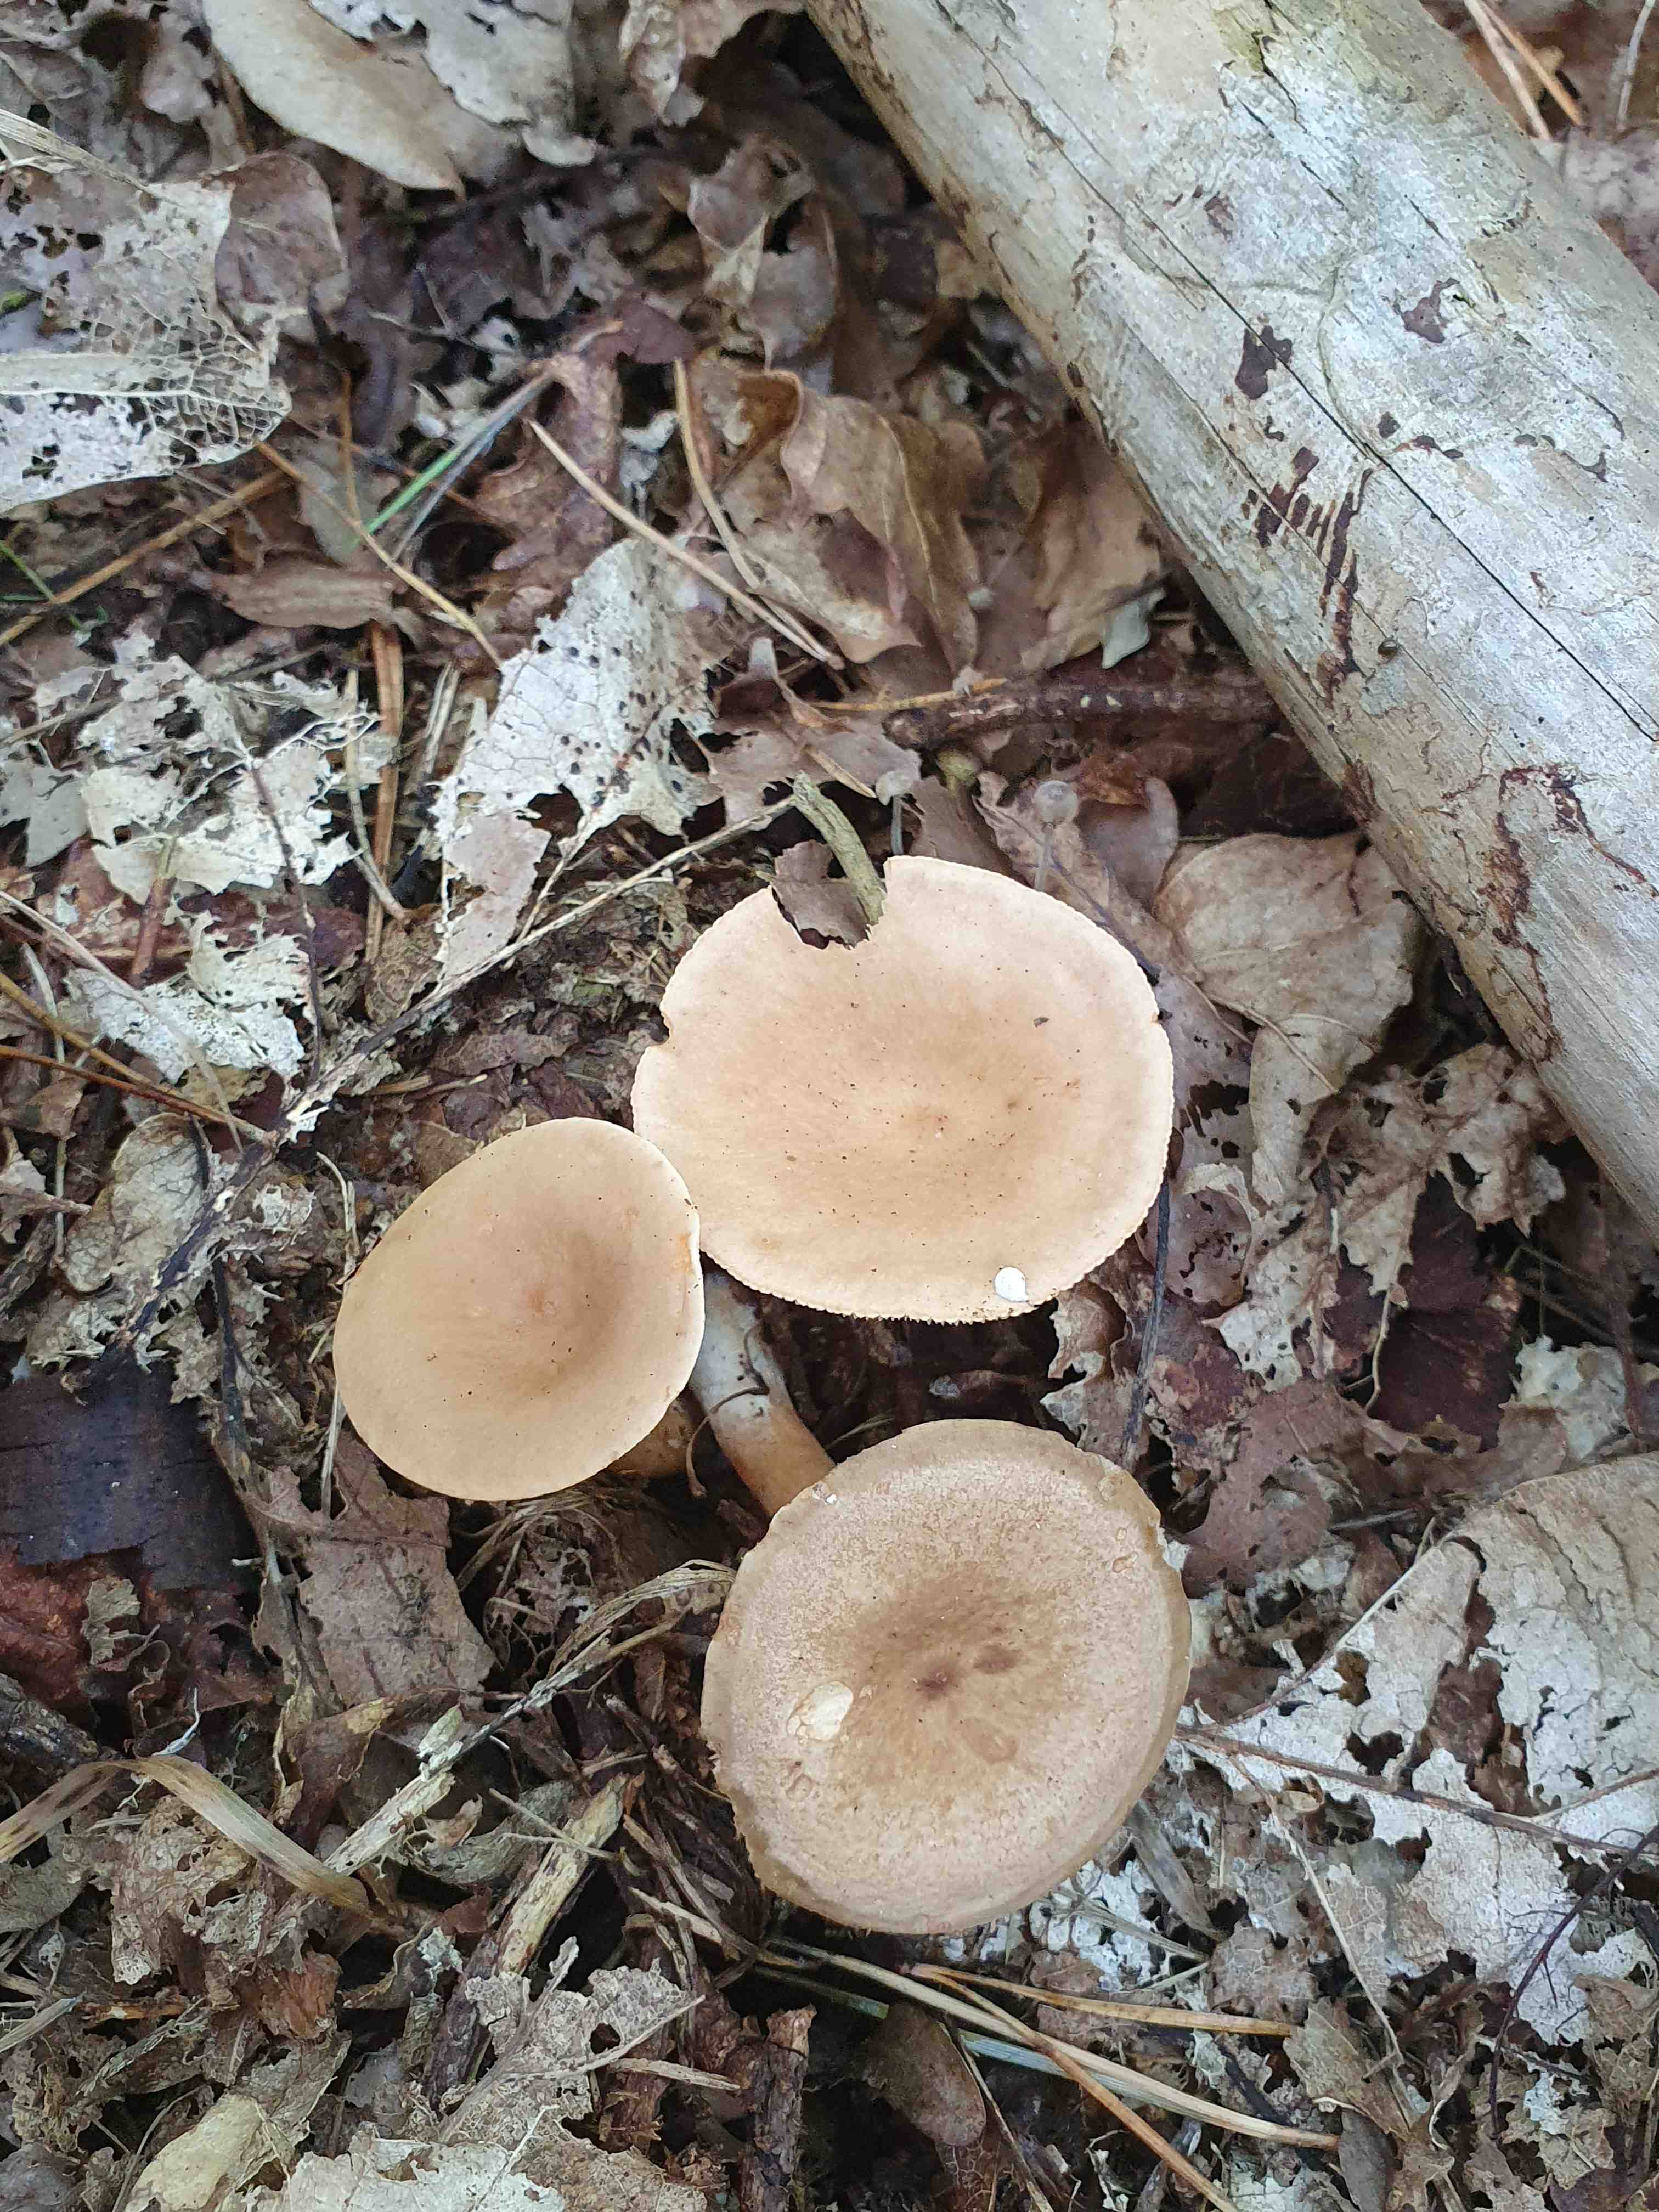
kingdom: Fungi
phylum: Basidiomycota
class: Agaricomycetes
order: Russulales
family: Russulaceae
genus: Lactarius
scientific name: Lactarius tabidus
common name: rynket mælkehat
